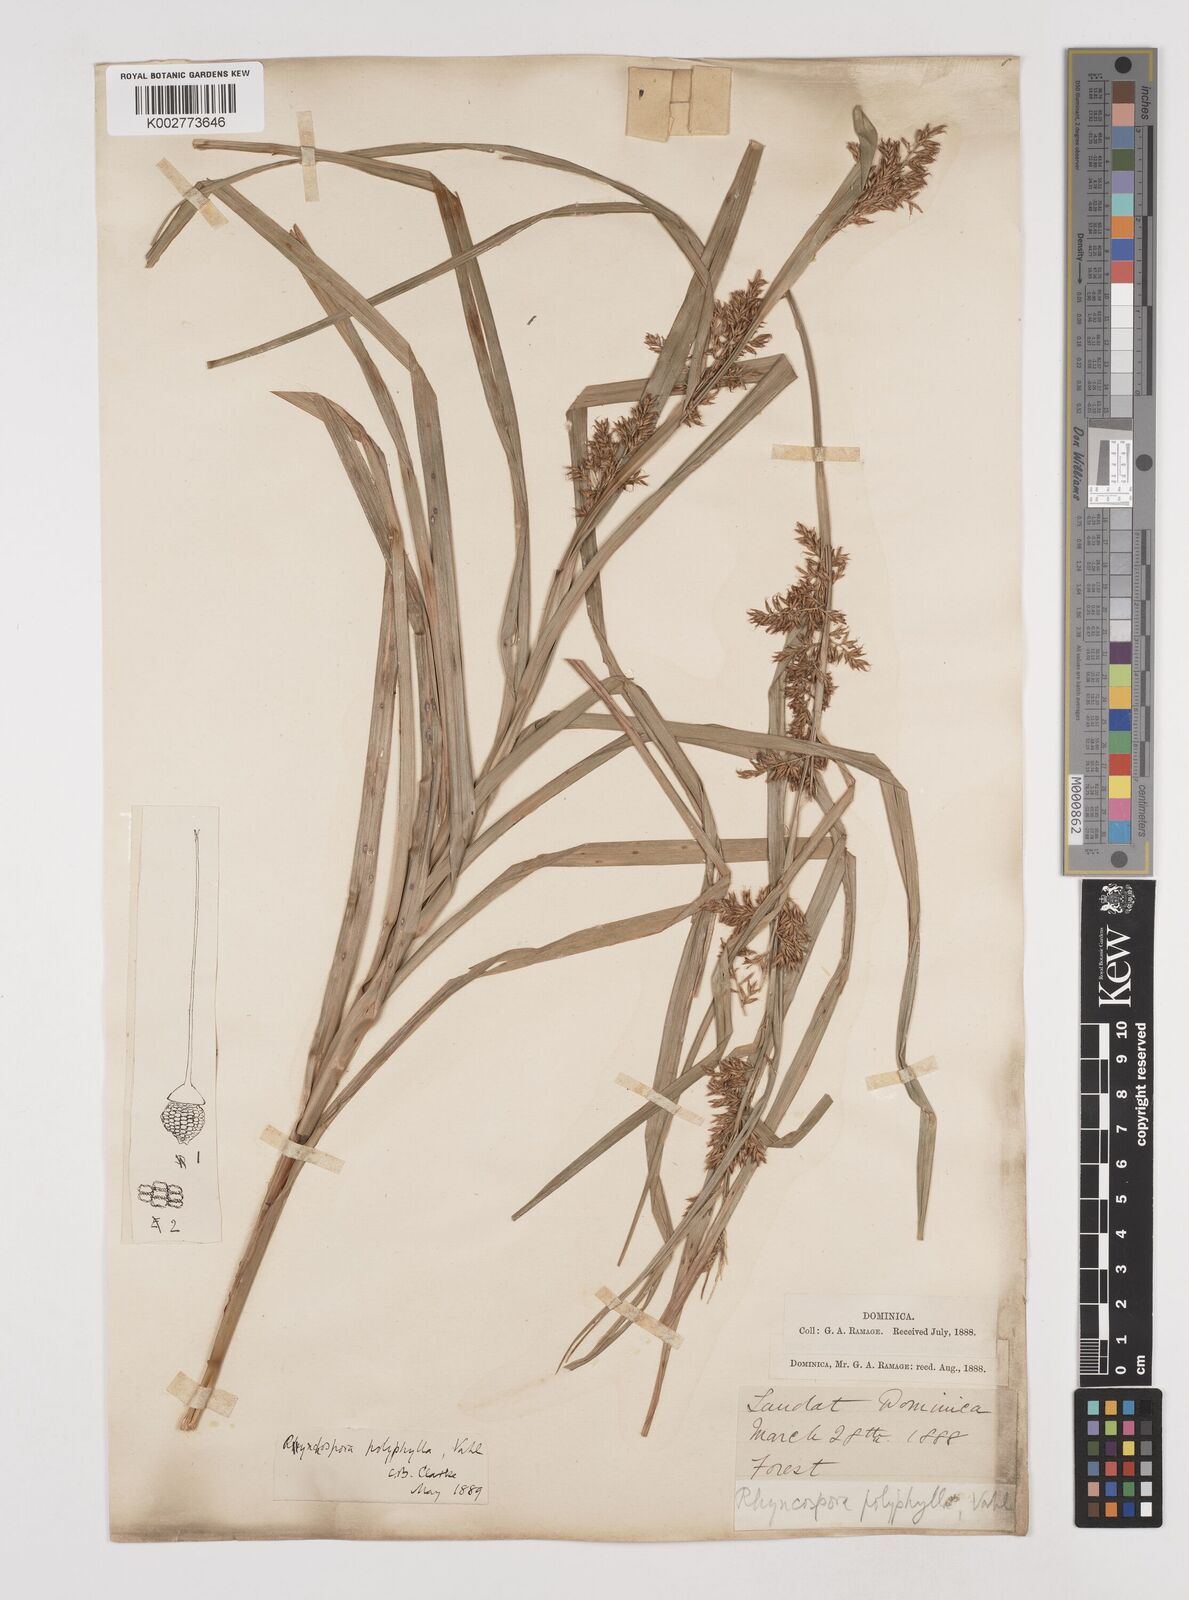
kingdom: Plantae
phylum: Tracheophyta
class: Liliopsida
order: Poales
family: Cyperaceae
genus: Rhynchospora
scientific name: Rhynchospora polyphylla
